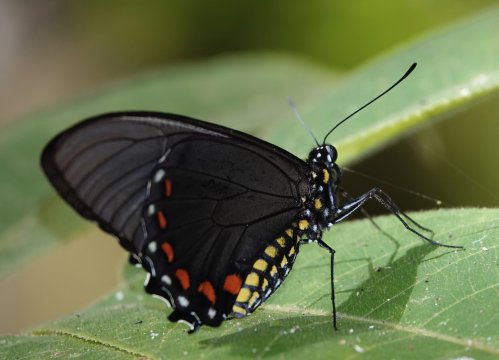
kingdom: Animalia
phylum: Arthropoda
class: Insecta
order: Lepidoptera
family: Papilionidae
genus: Battus
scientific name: Battus ingenuus
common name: Dyar's Swallowtail
